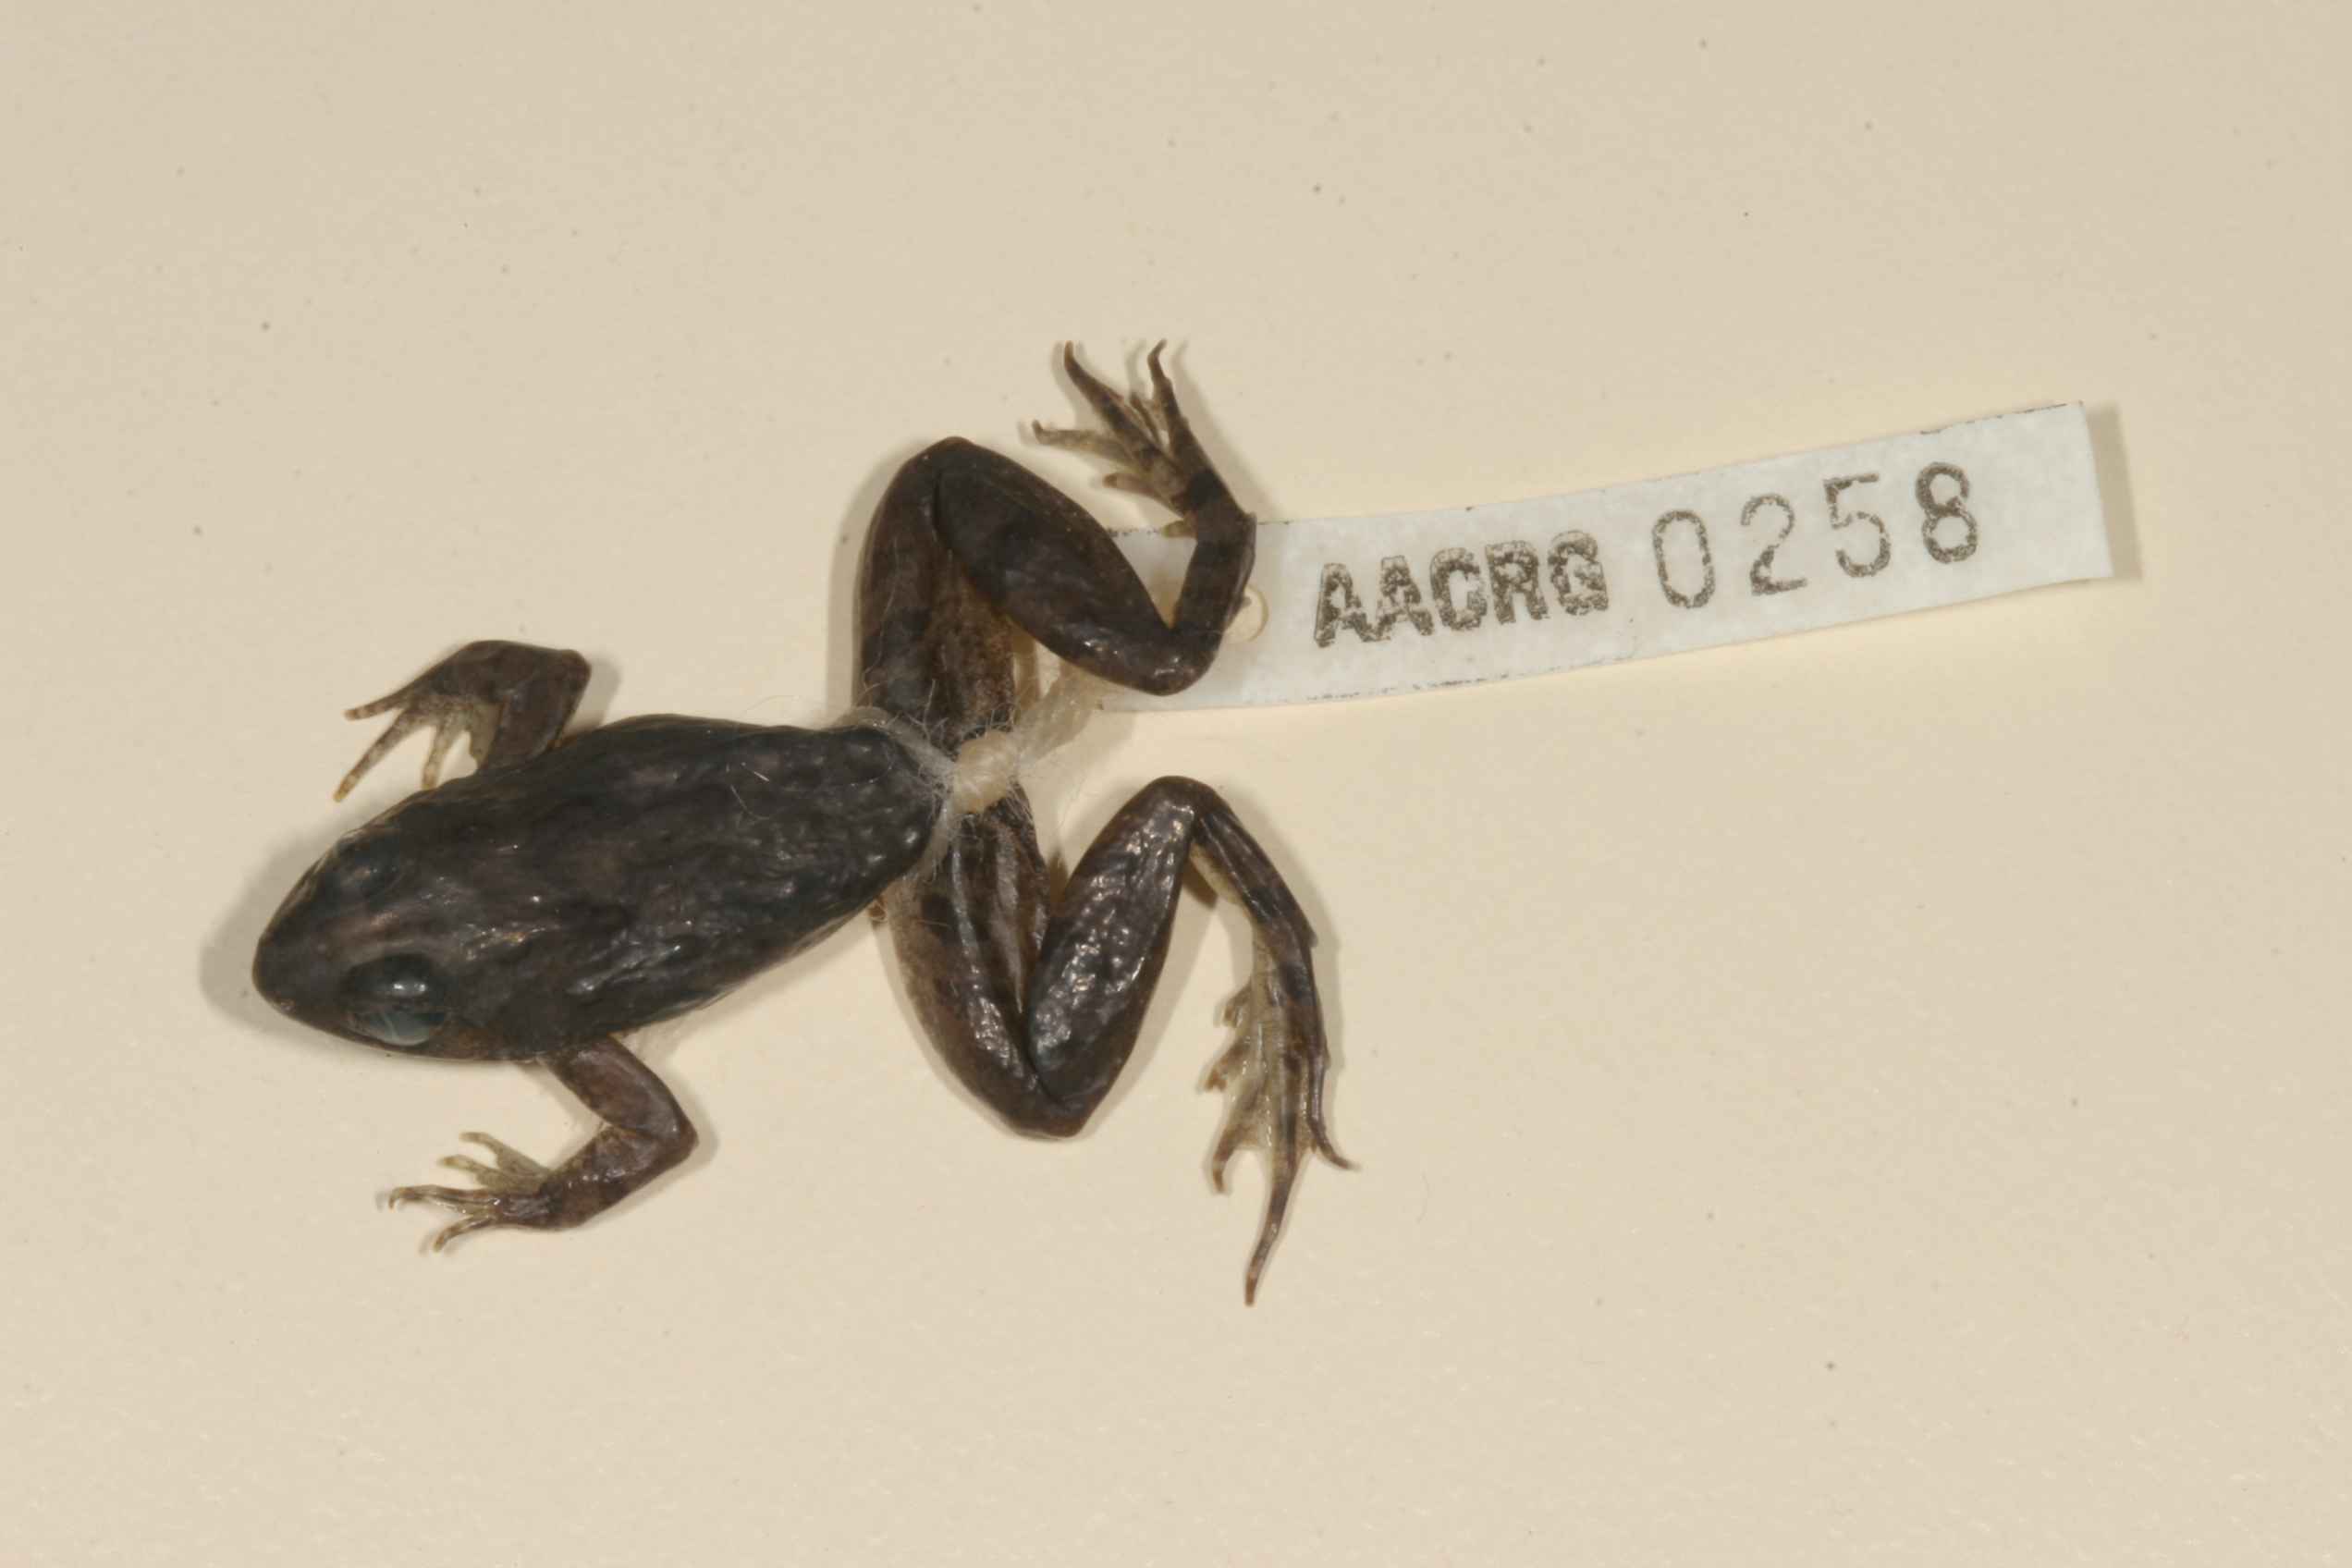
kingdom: Animalia
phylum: Chordata
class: Amphibia
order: Anura
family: Phrynobatrachidae
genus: Phrynobatrachus
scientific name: Phrynobatrachus natalensis
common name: Snoring puddle frog
